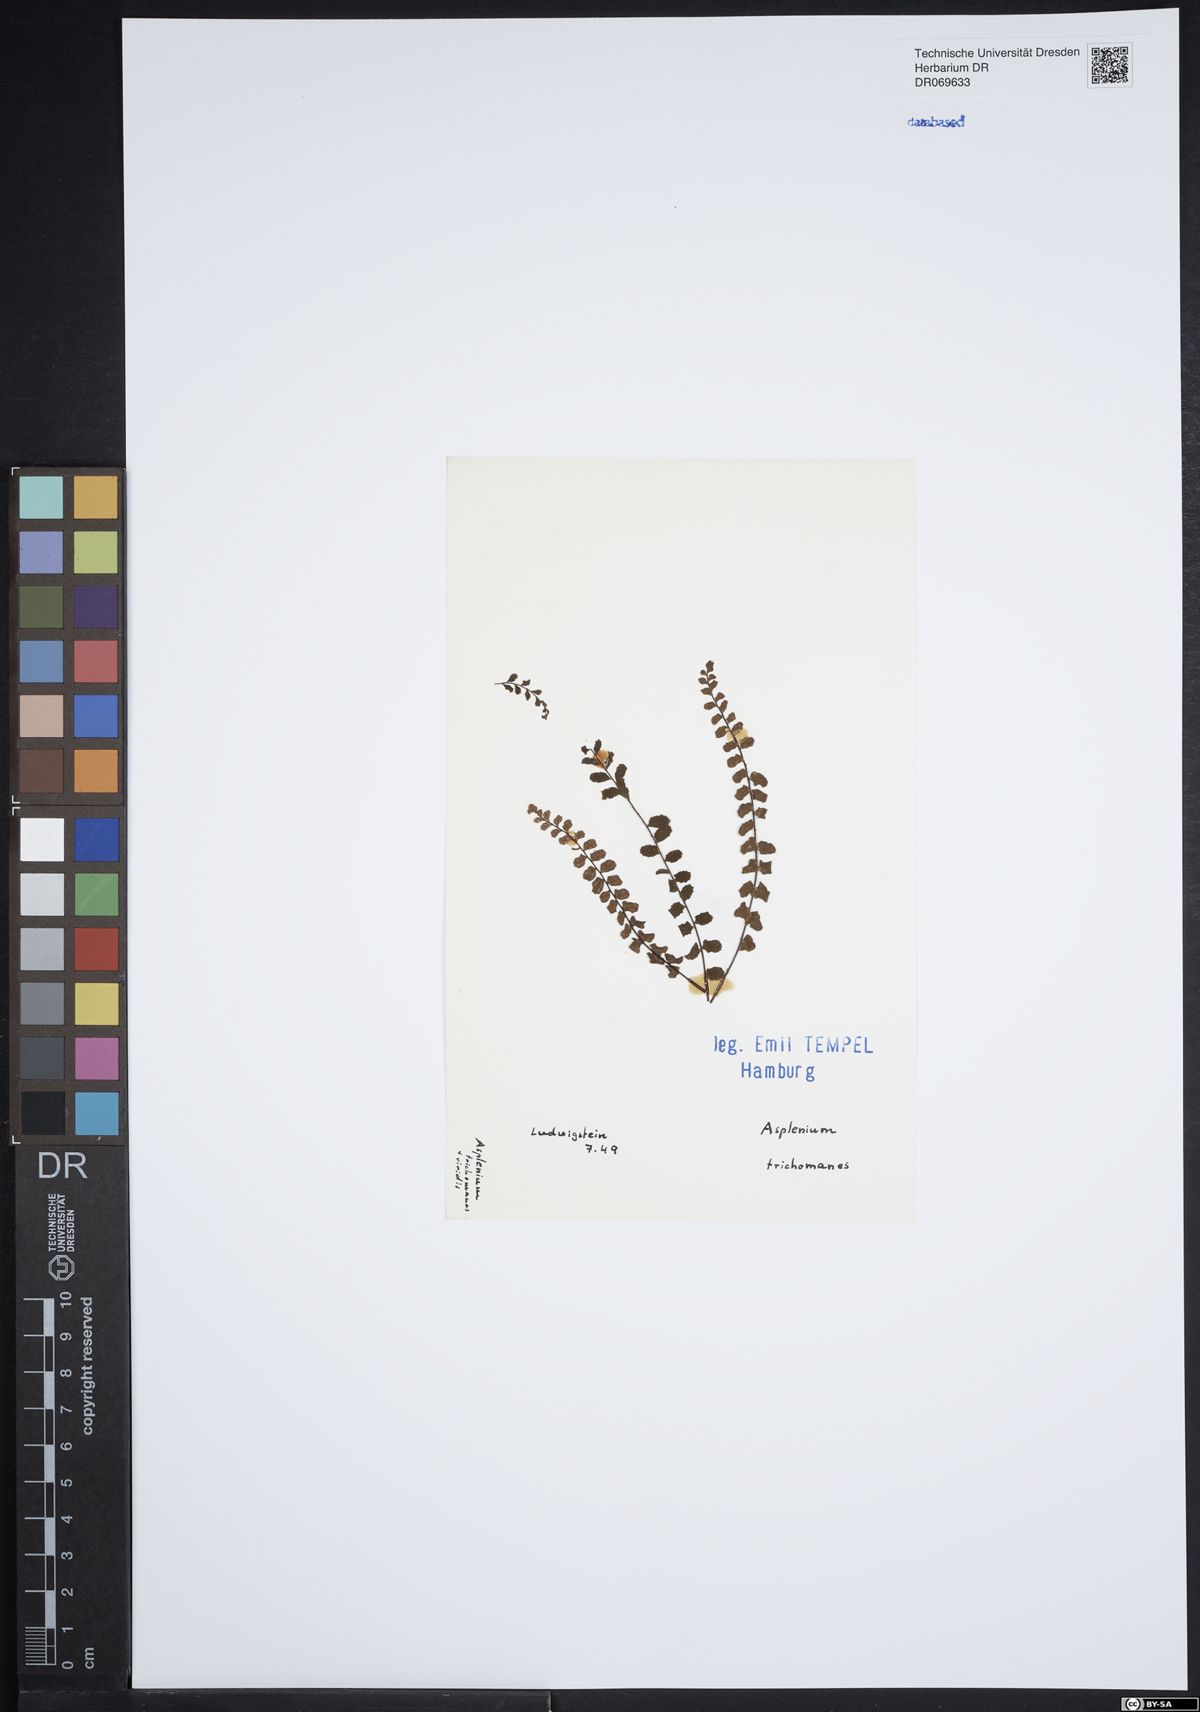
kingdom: Plantae
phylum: Tracheophyta
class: Polypodiopsida
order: Polypodiales
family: Aspleniaceae
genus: Asplenium
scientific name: Asplenium trichomanes
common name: Maidenhair spleenwort
